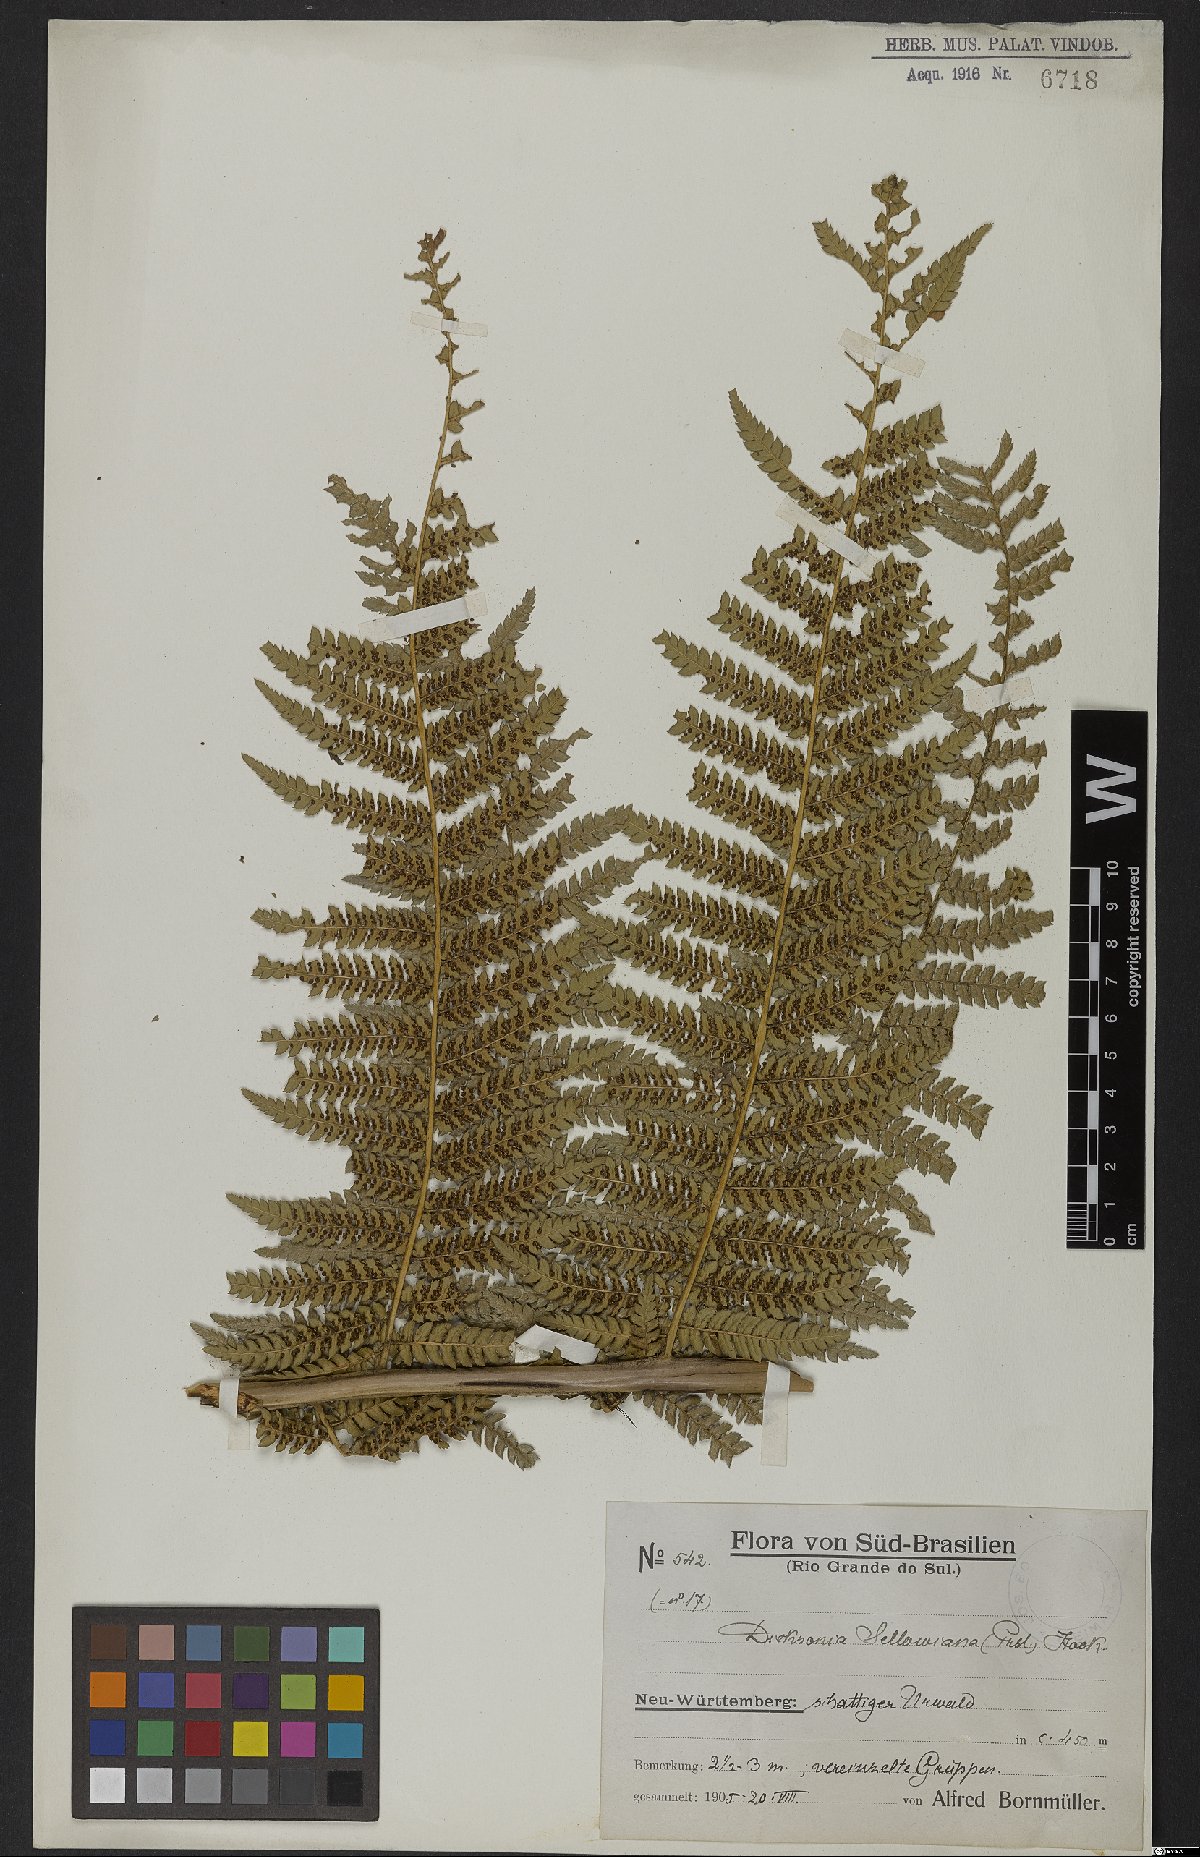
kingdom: Plantae
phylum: Tracheophyta
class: Polypodiopsida
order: Cyatheales
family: Dicksoniaceae
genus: Dicksonia
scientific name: Dicksonia sellowiana
